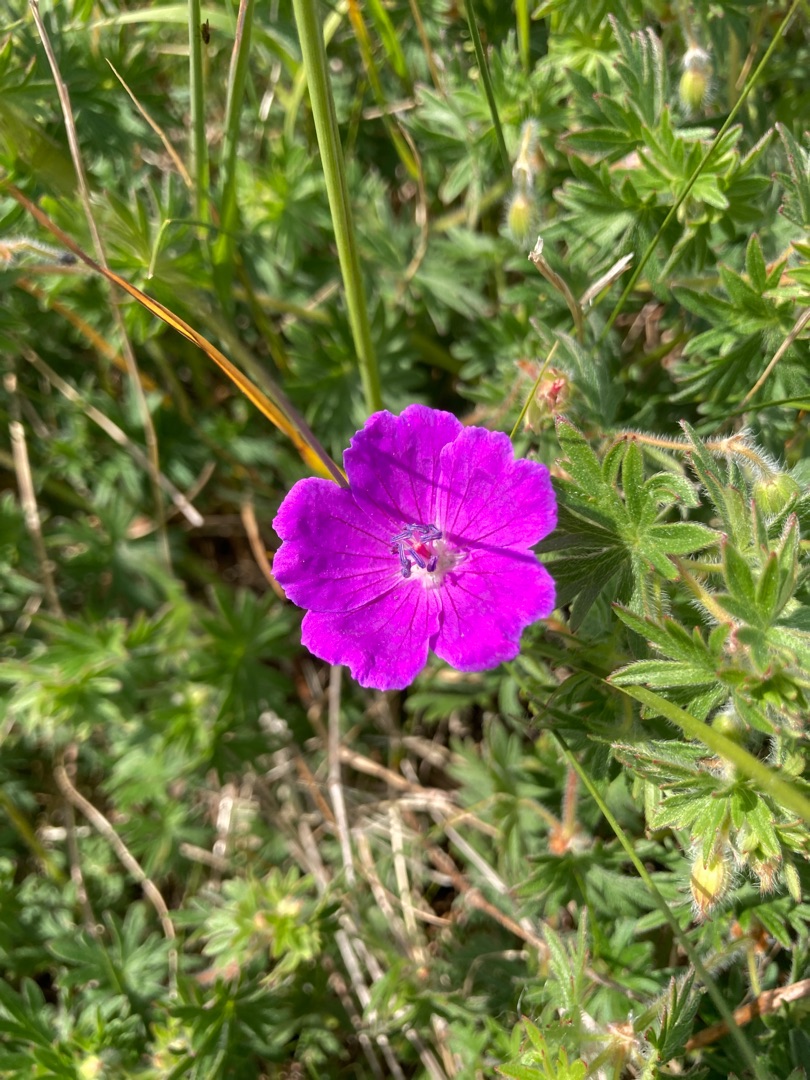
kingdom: Plantae
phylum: Tracheophyta
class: Magnoliopsida
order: Geraniales
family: Geraniaceae
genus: Geranium
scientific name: Geranium sanguineum
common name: Blodrød storkenæb
